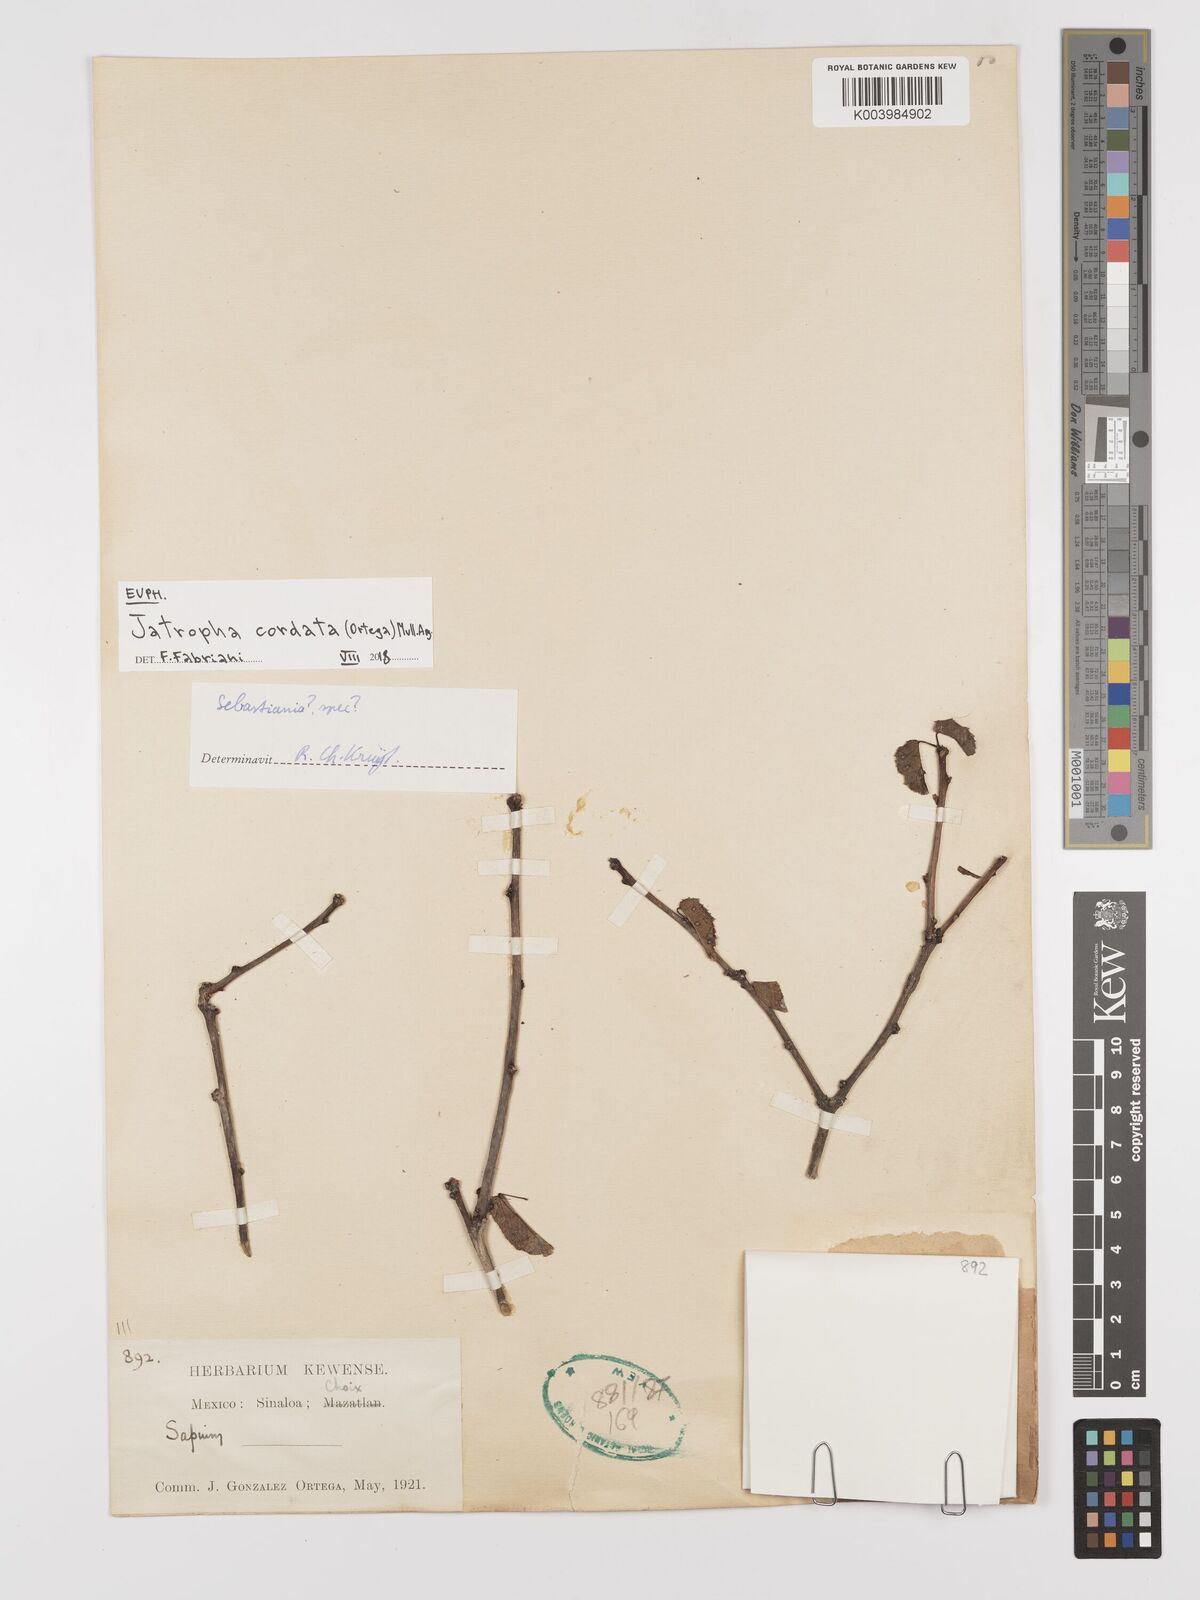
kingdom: Plantae
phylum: Tracheophyta
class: Magnoliopsida
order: Malpighiales
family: Euphorbiaceae
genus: Jatropha
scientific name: Jatropha cordata
